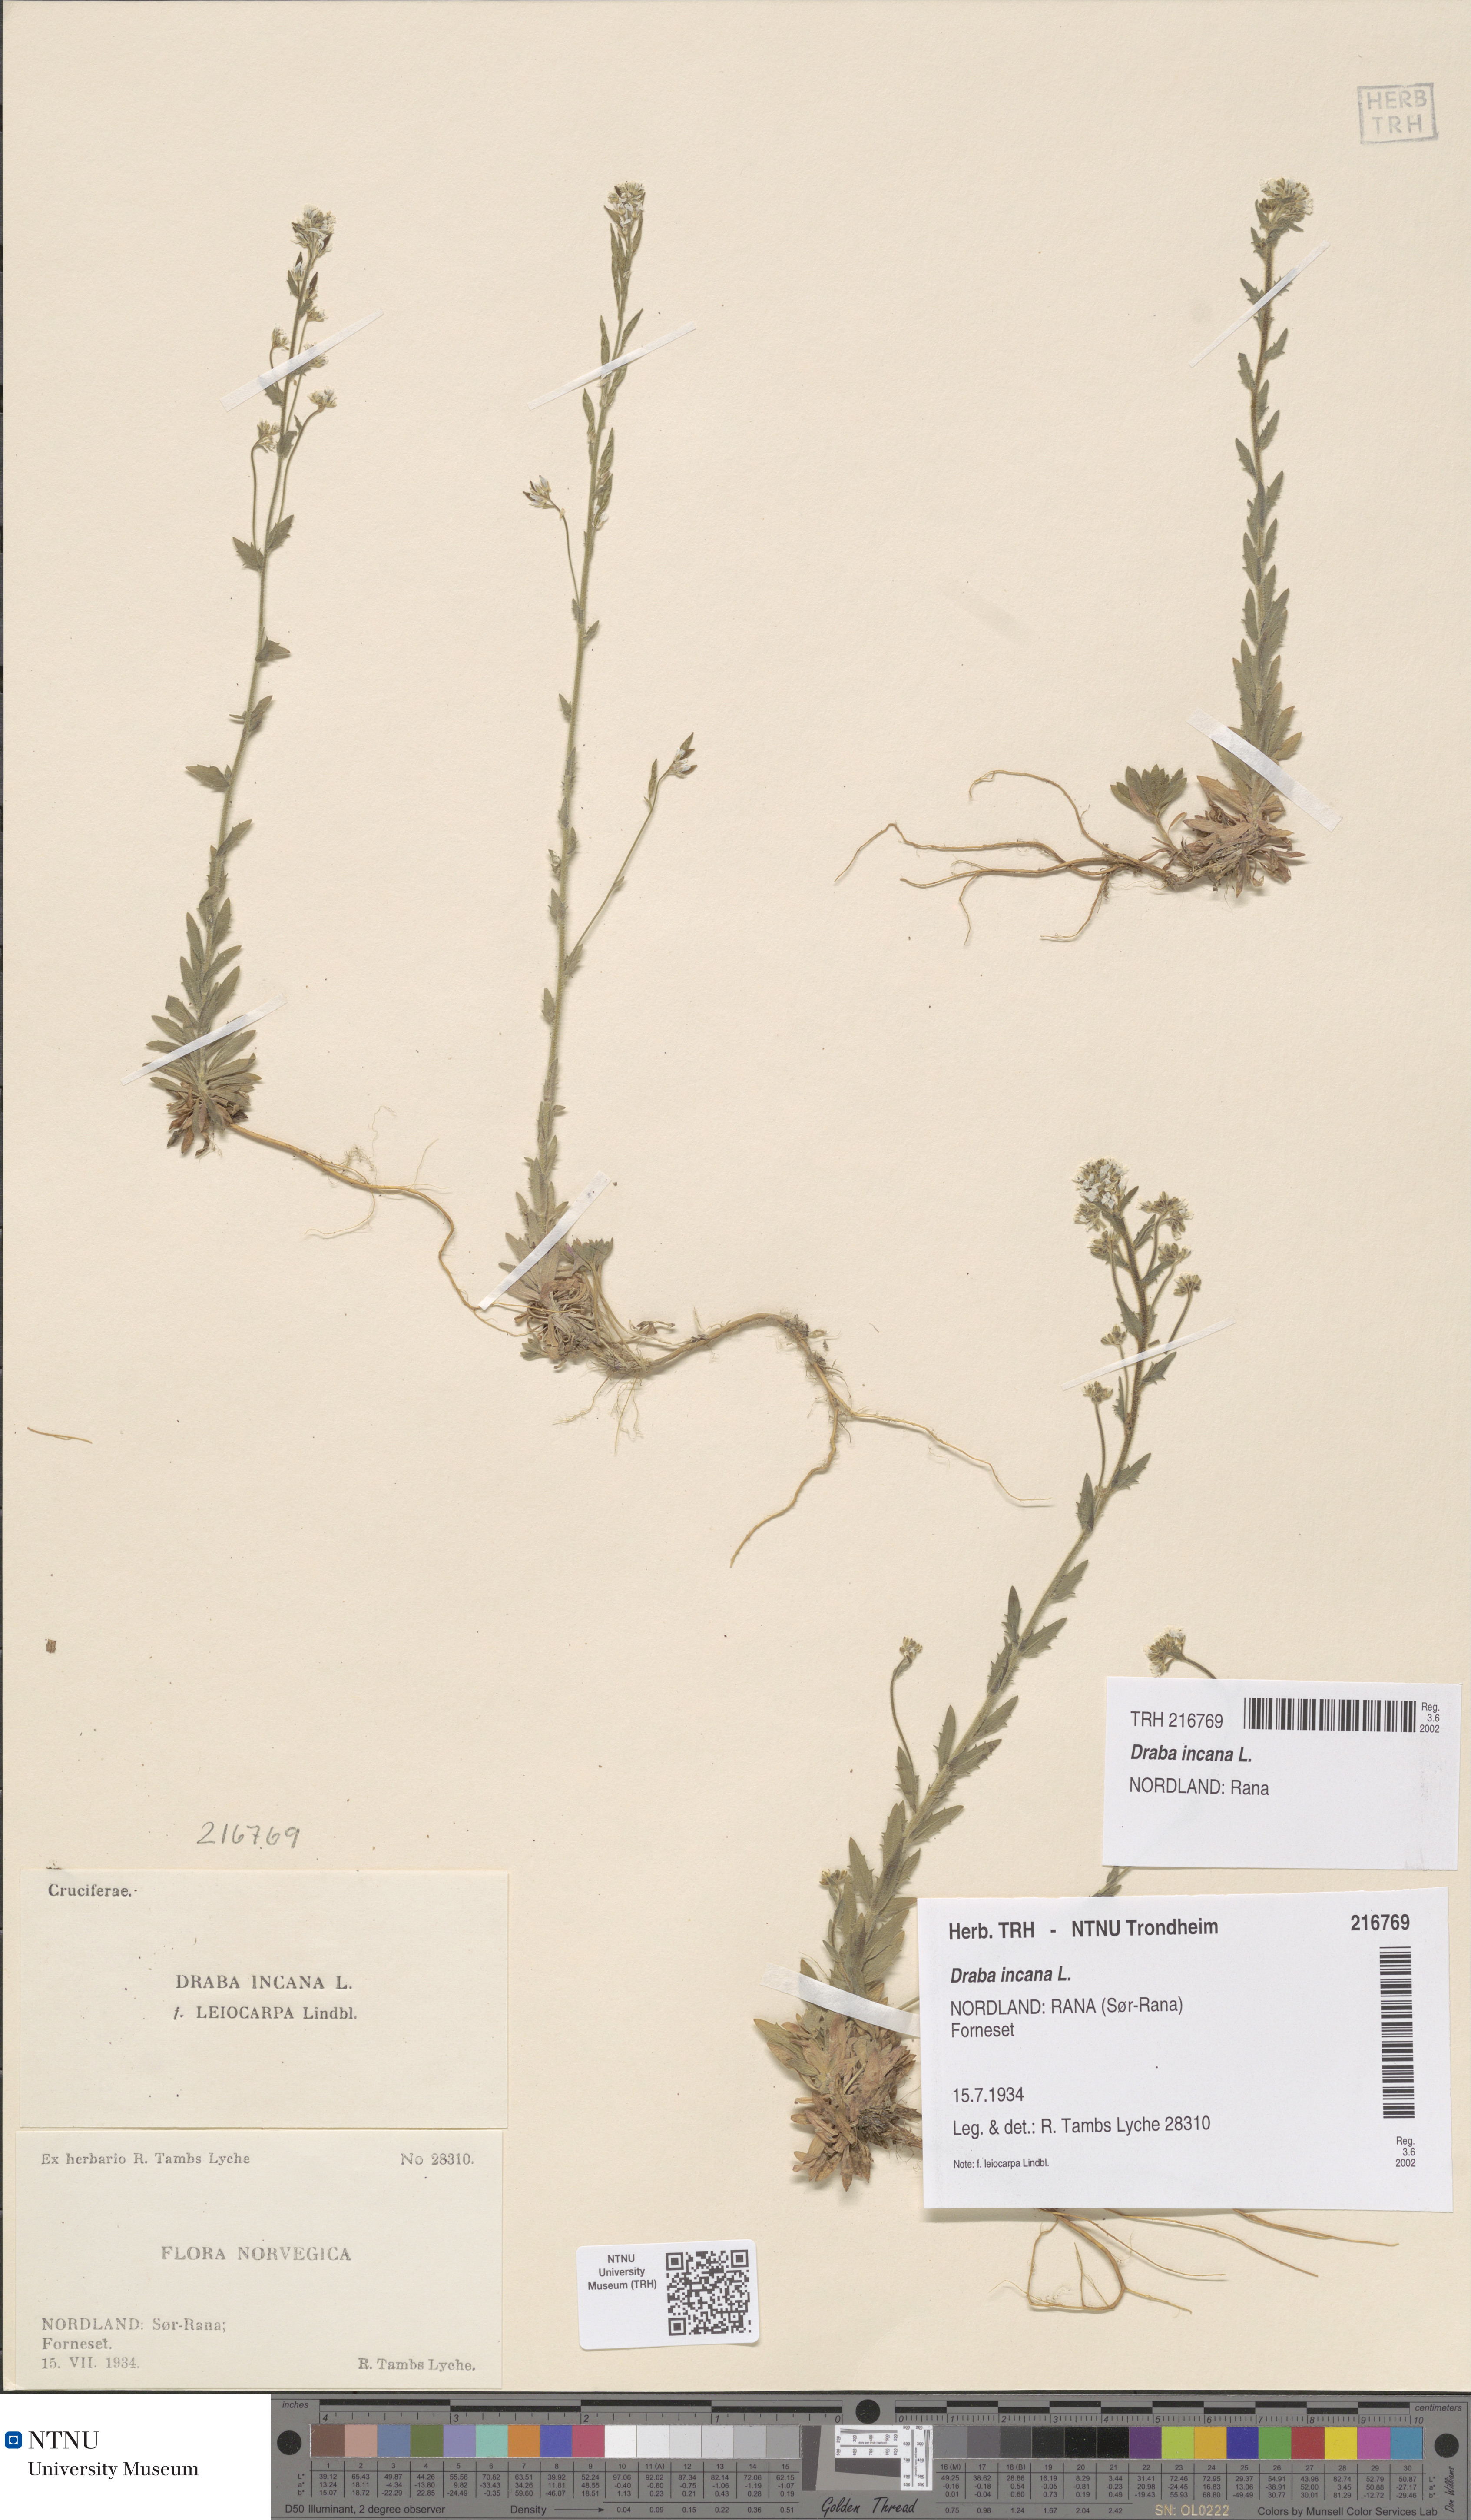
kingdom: Plantae
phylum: Tracheophyta
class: Magnoliopsida
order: Brassicales
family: Brassicaceae
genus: Draba
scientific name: Draba incana
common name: Hoary whitlow-grass
